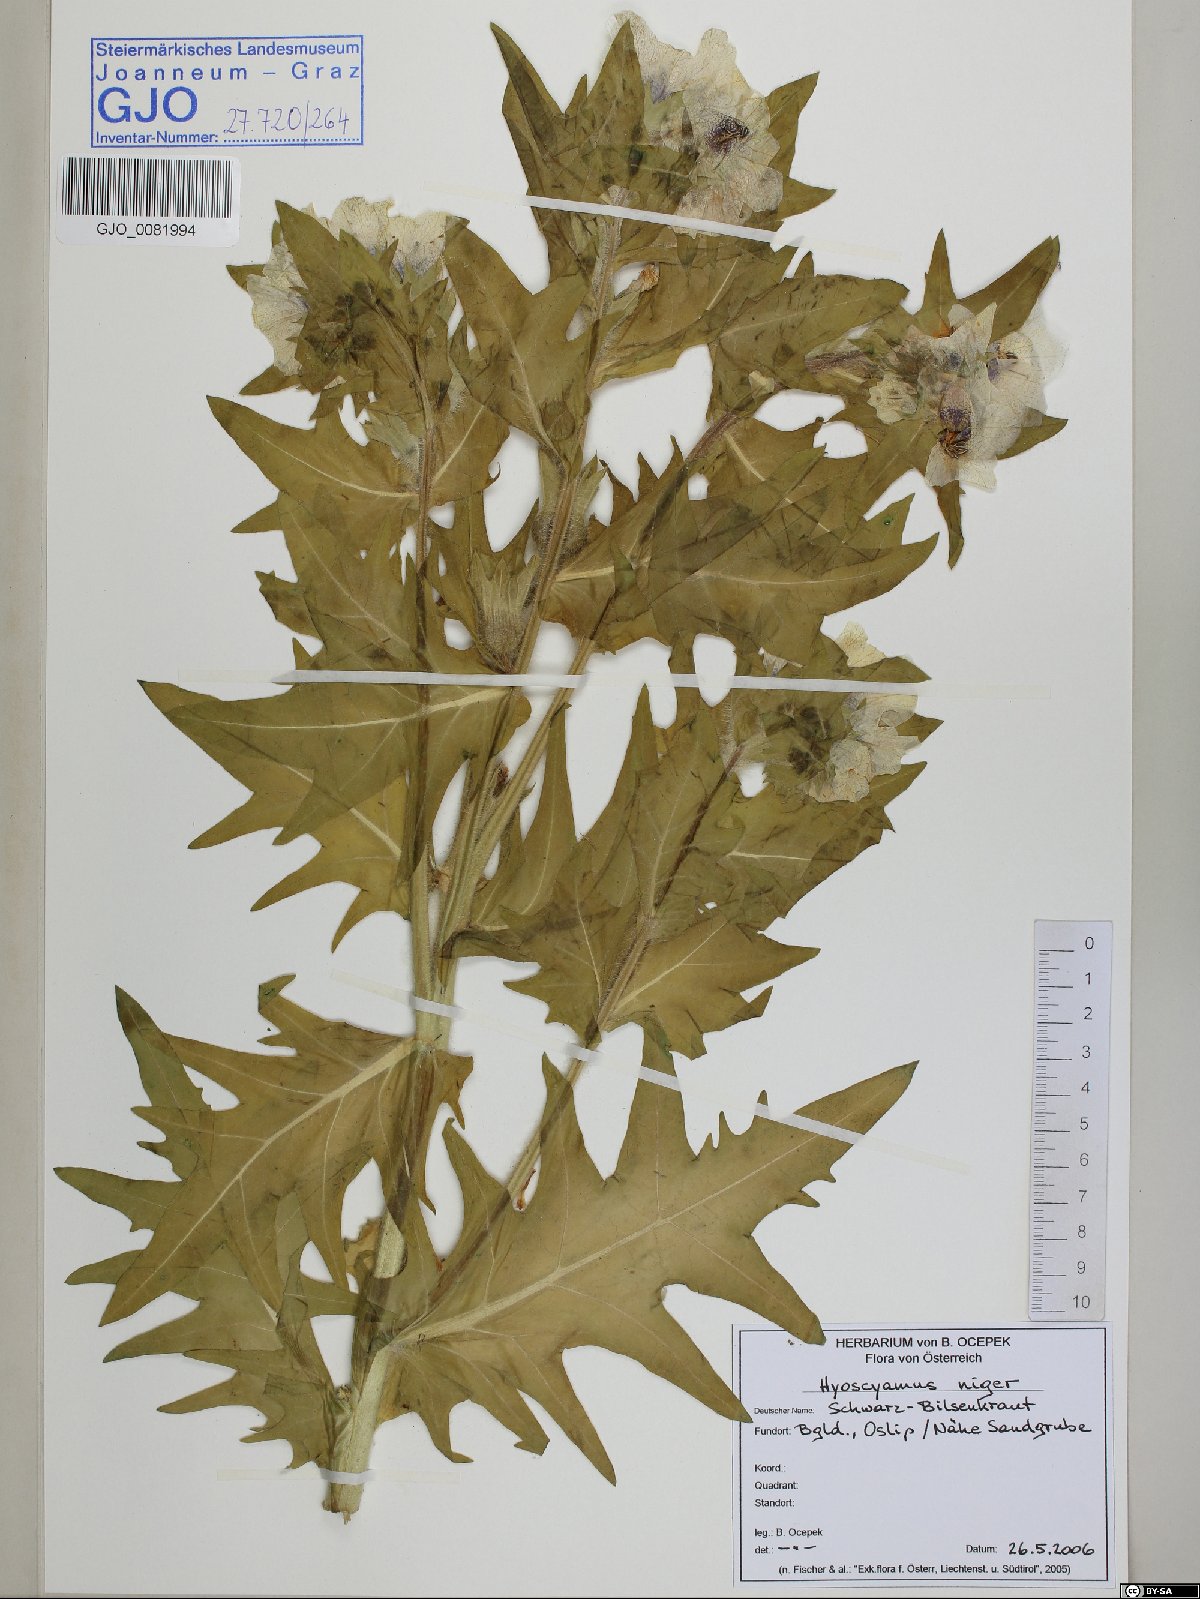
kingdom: Plantae
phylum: Tracheophyta
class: Magnoliopsida
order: Solanales
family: Solanaceae
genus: Hyoscyamus
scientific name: Hyoscyamus niger
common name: Henbane
